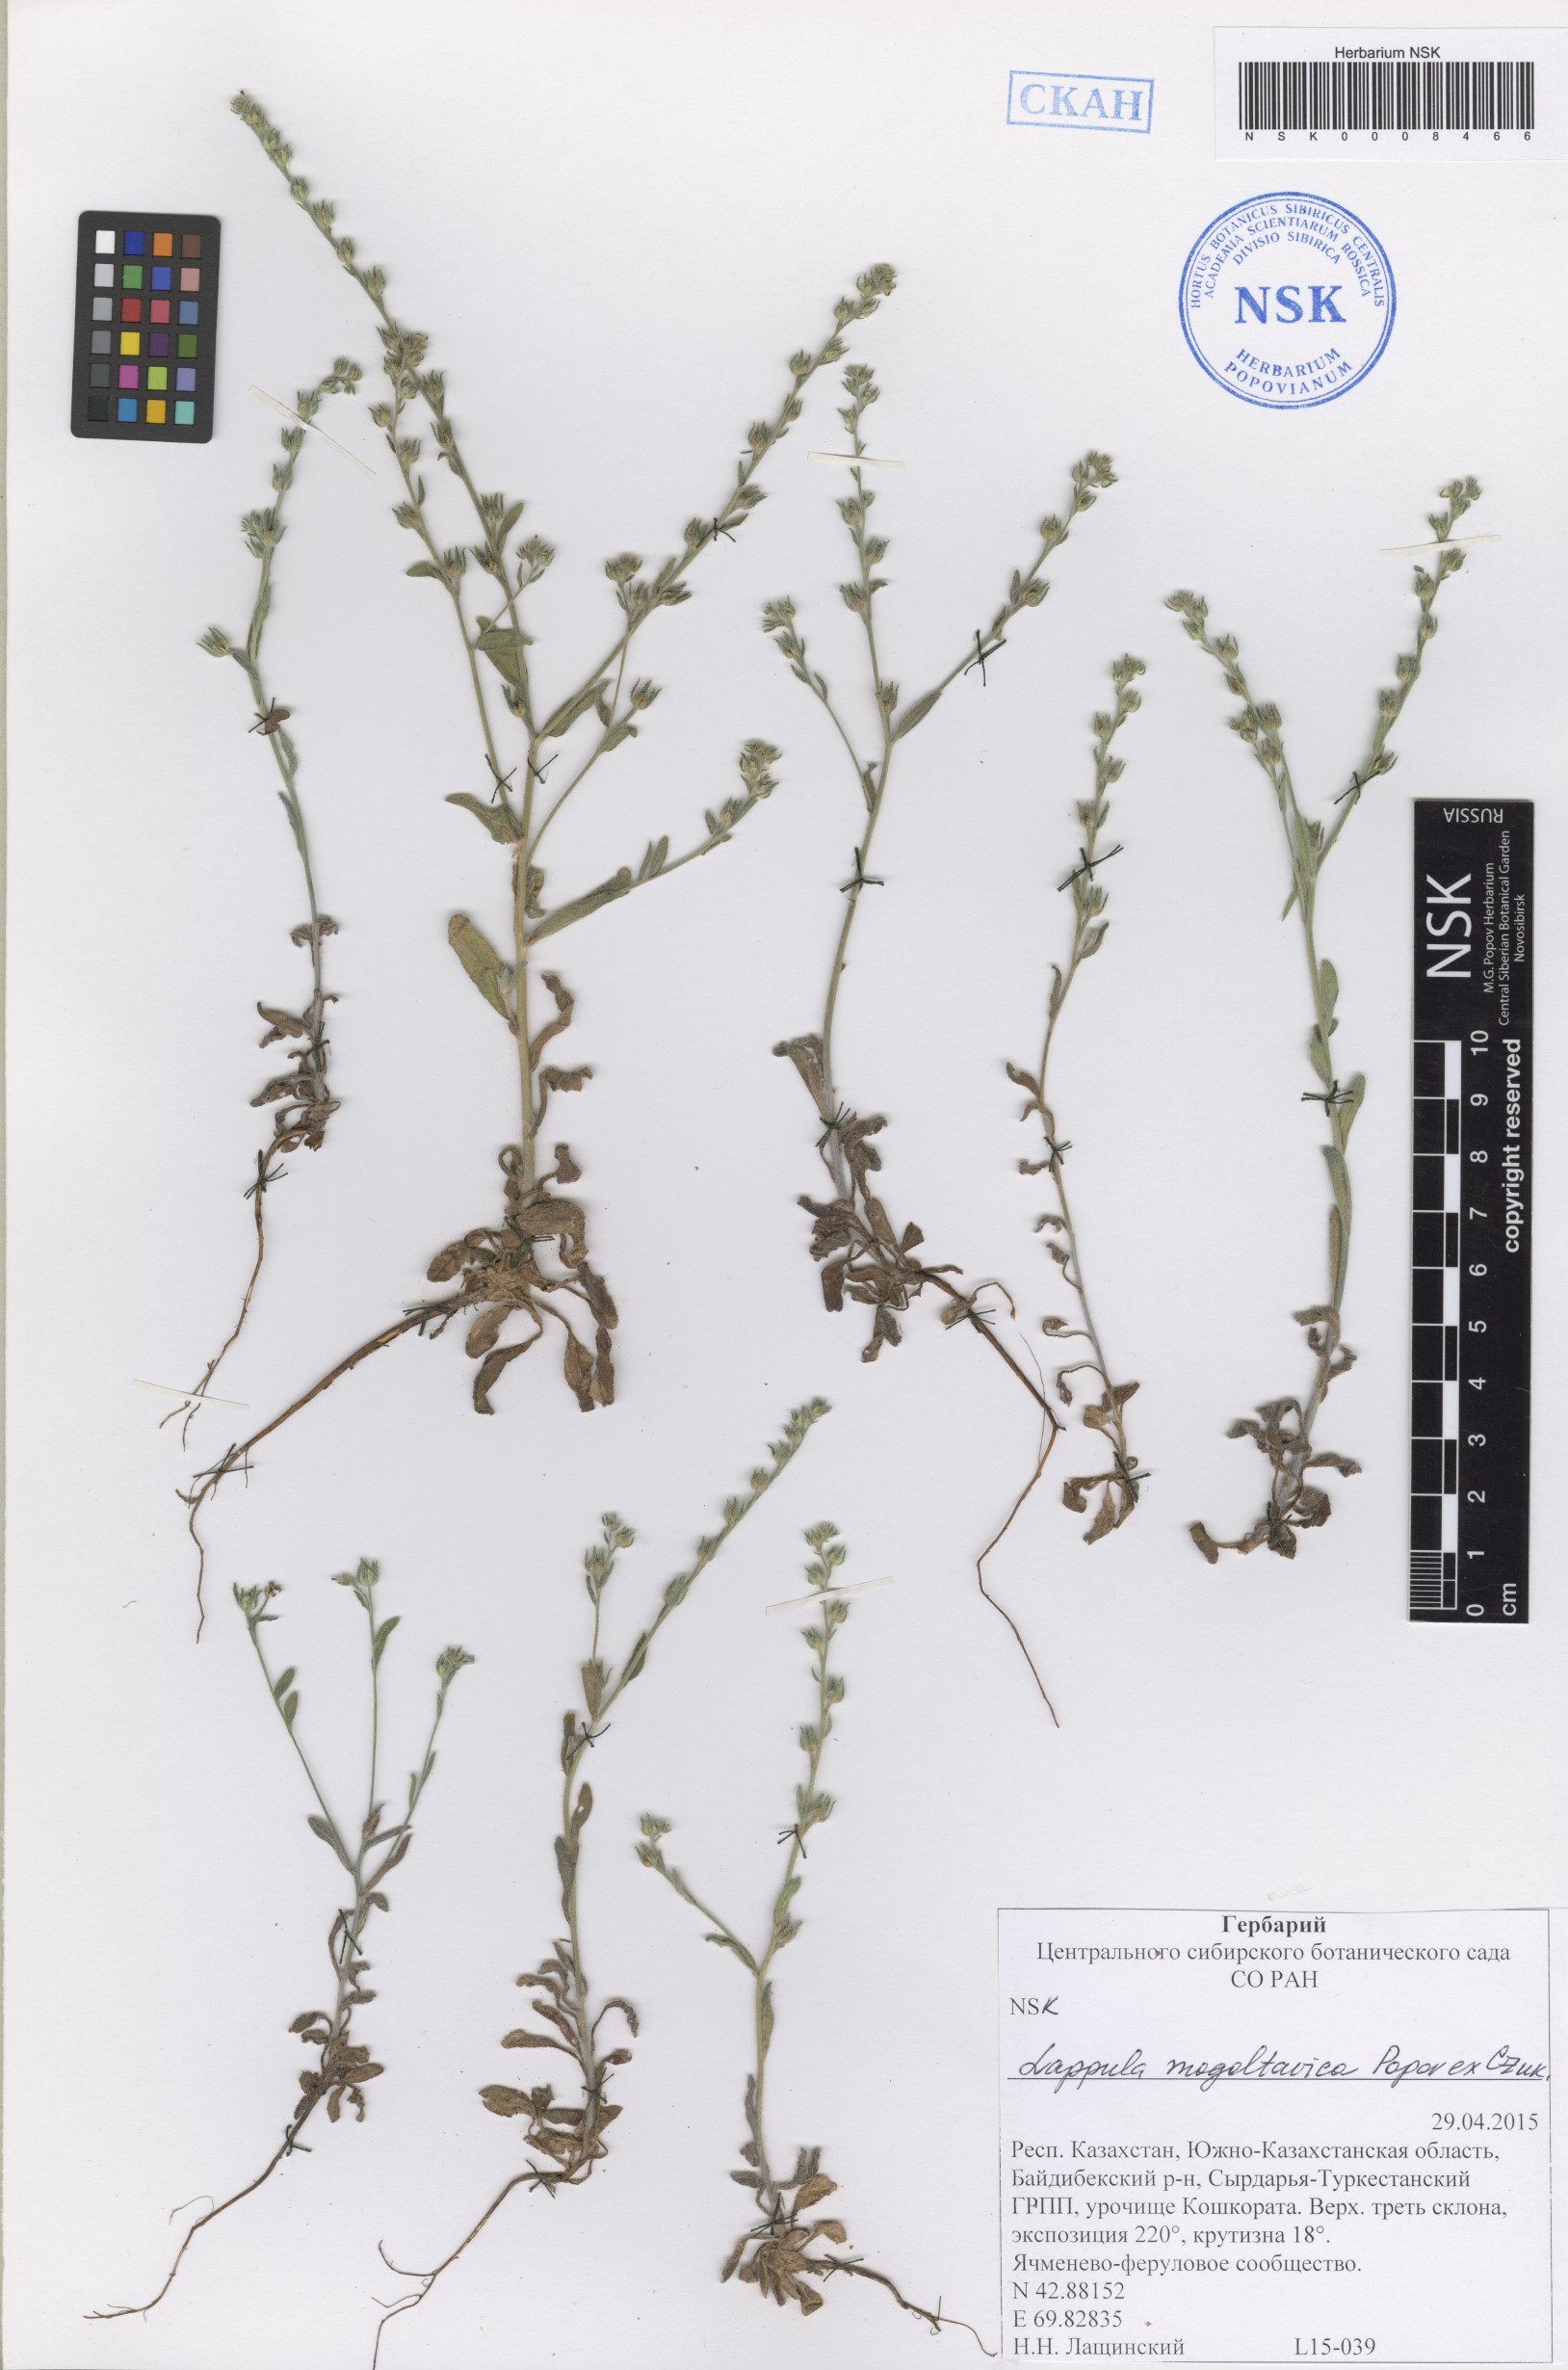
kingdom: Plantae
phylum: Tracheophyta
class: Magnoliopsida
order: Boraginales
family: Boraginaceae
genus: Lappula
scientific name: Lappula mogoltavica
